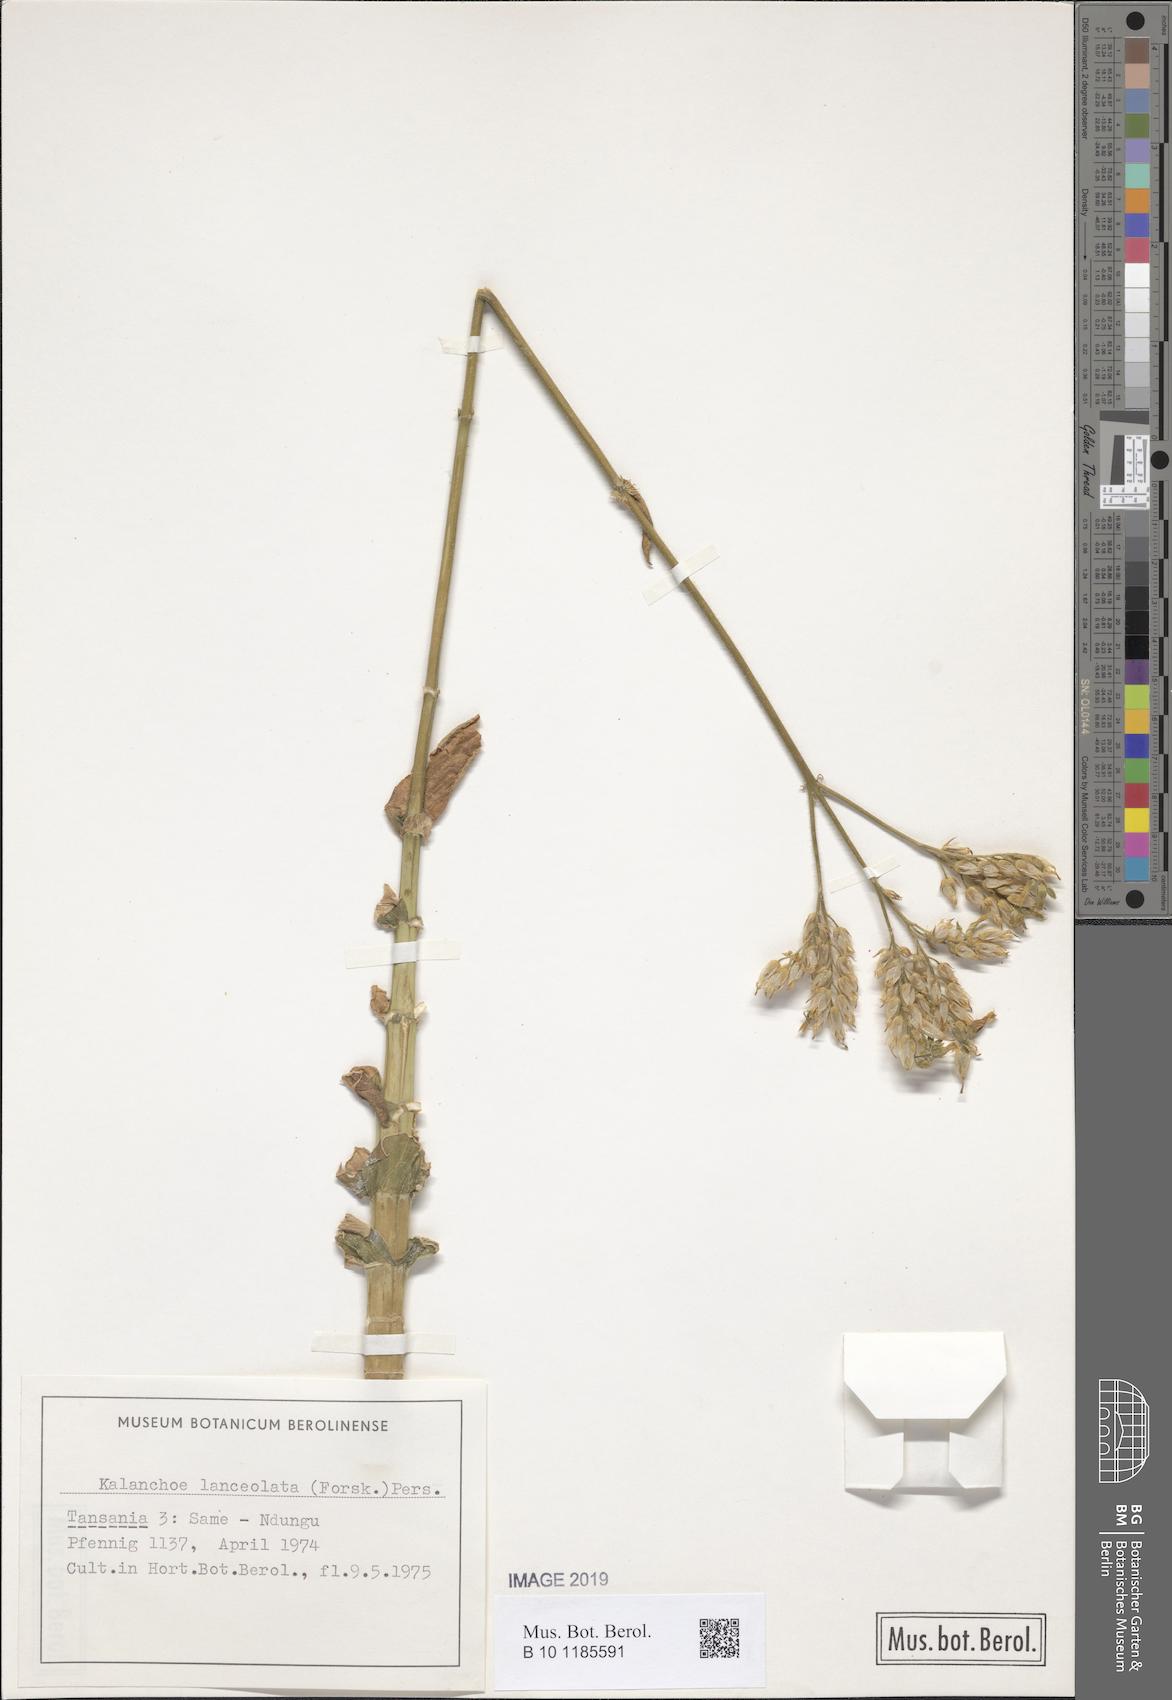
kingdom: Plantae
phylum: Tracheophyta
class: Magnoliopsida
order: Saxifragales
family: Crassulaceae
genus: Kalanchoe
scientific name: Kalanchoe lanceolata
